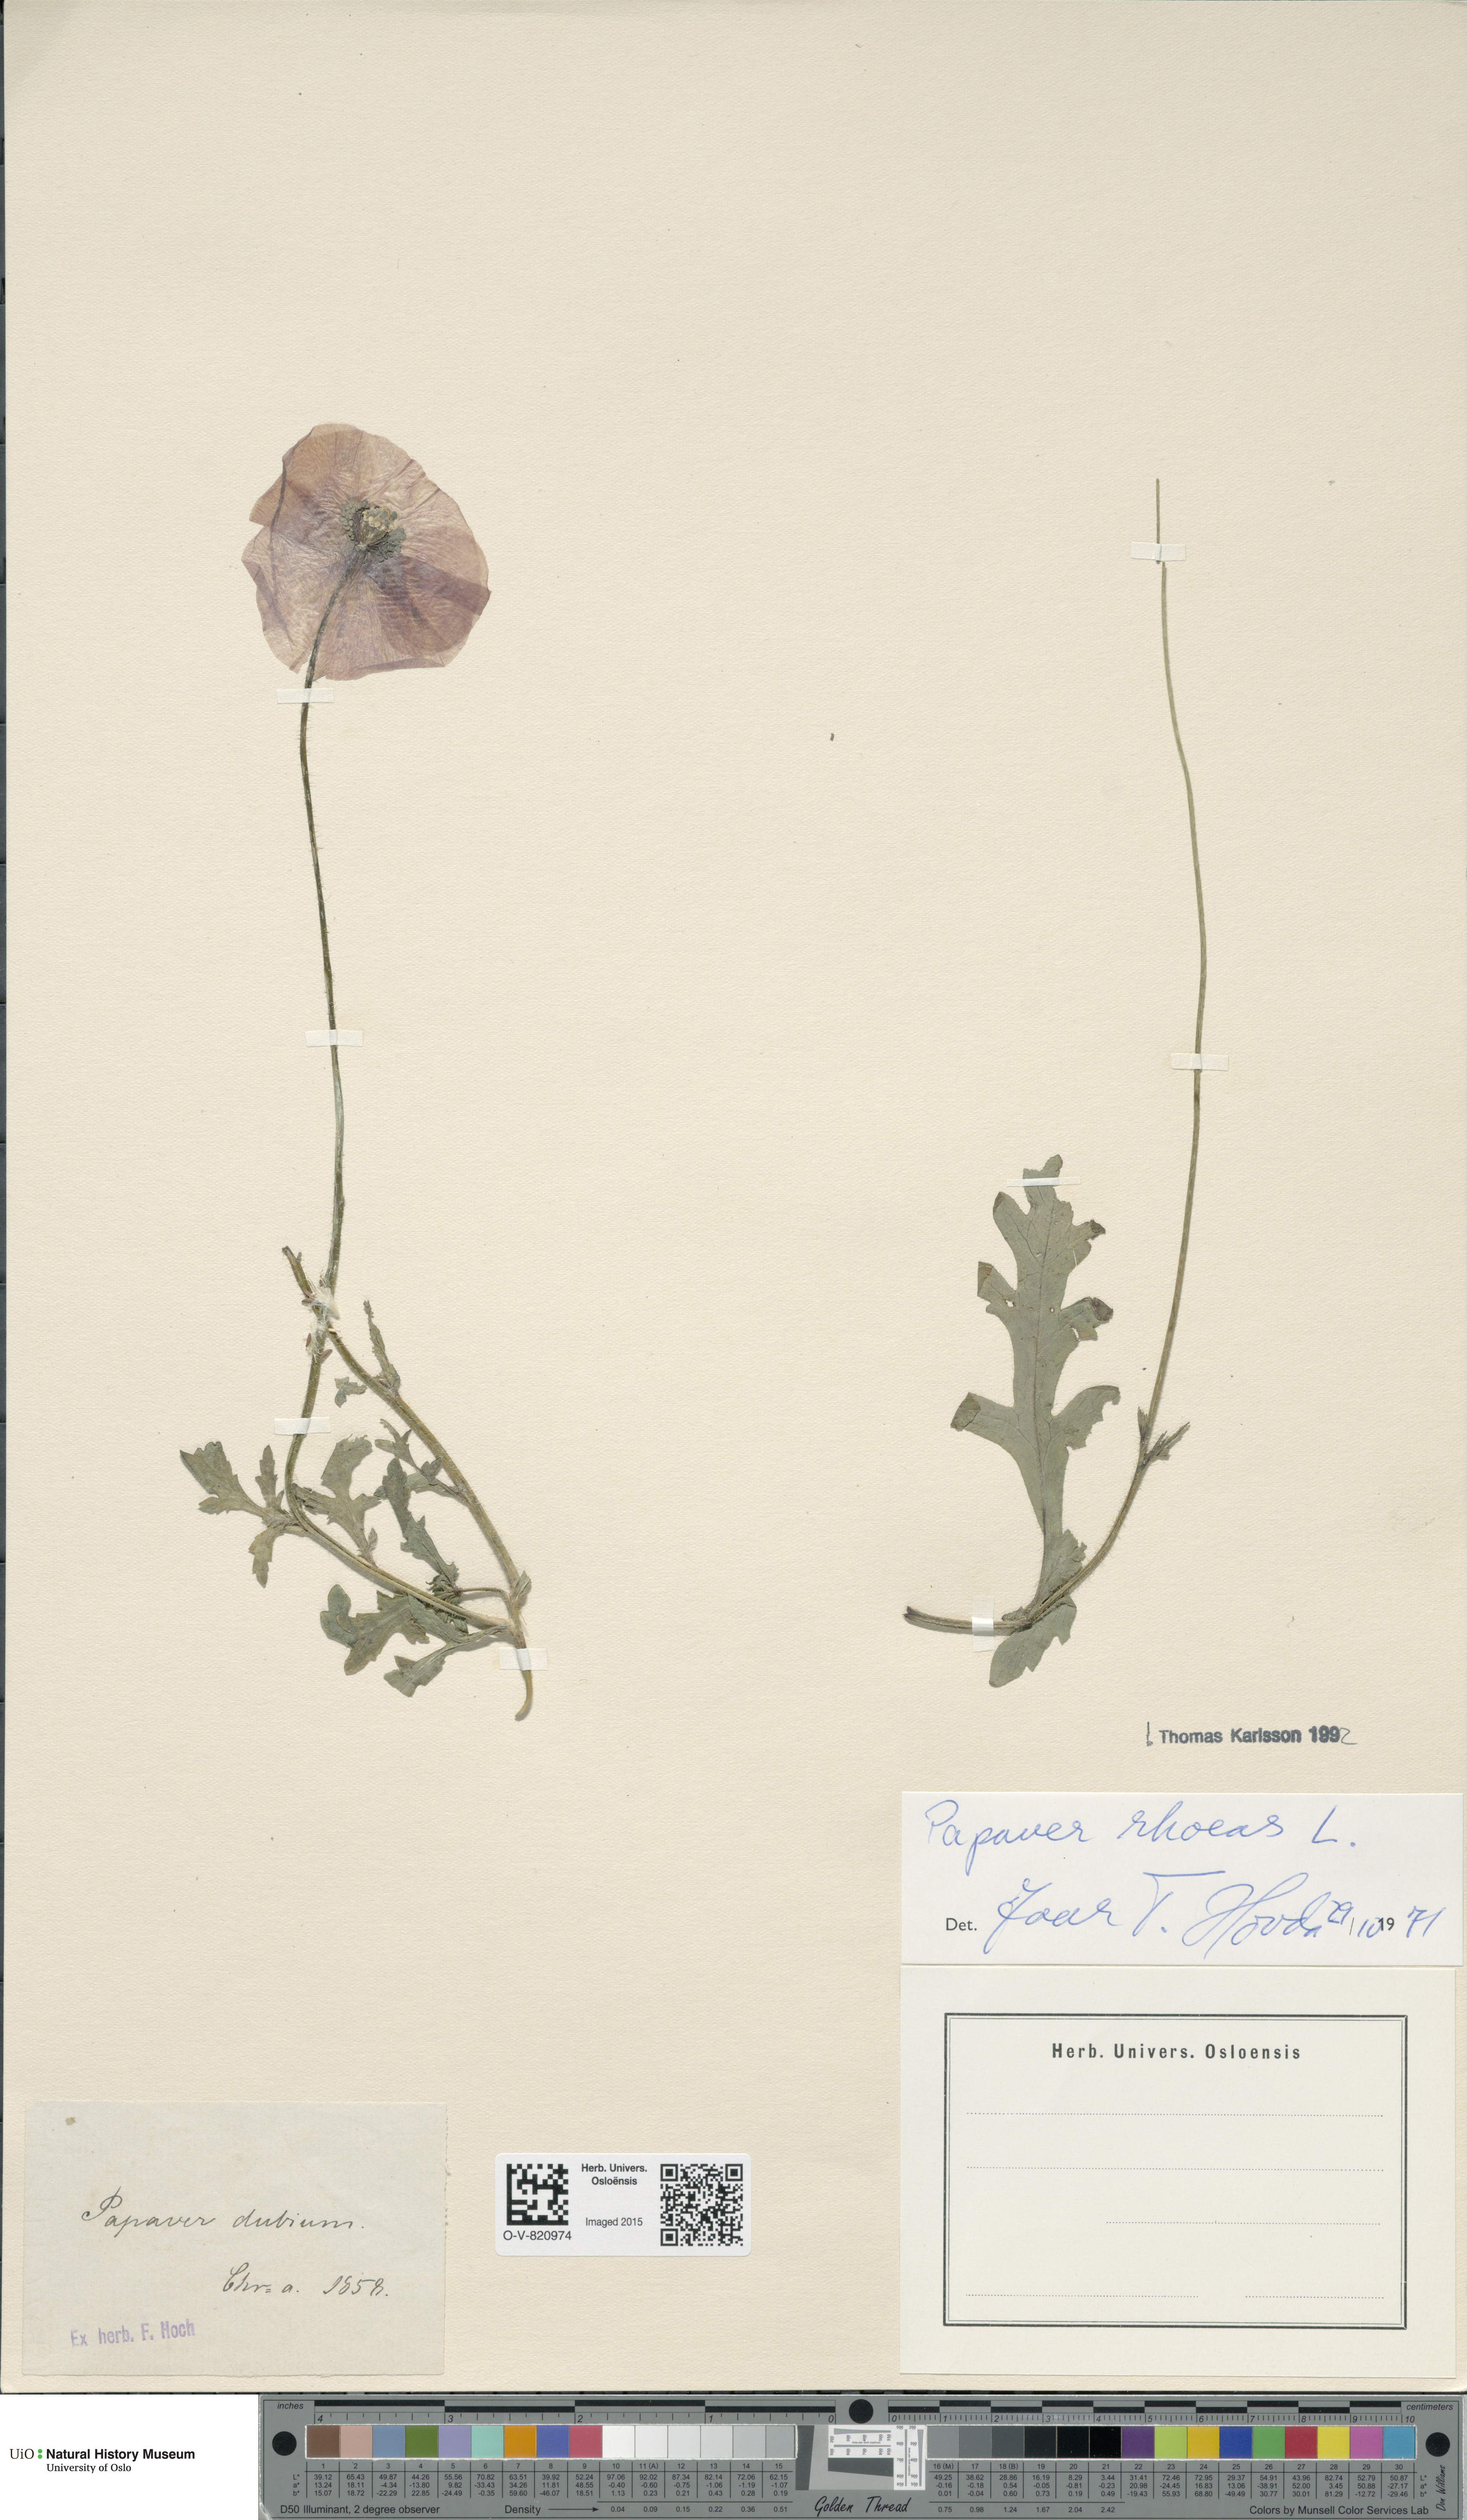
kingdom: Plantae
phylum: Tracheophyta
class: Magnoliopsida
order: Ranunculales
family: Papaveraceae
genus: Papaver
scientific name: Papaver rhoeas
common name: Corn poppy
